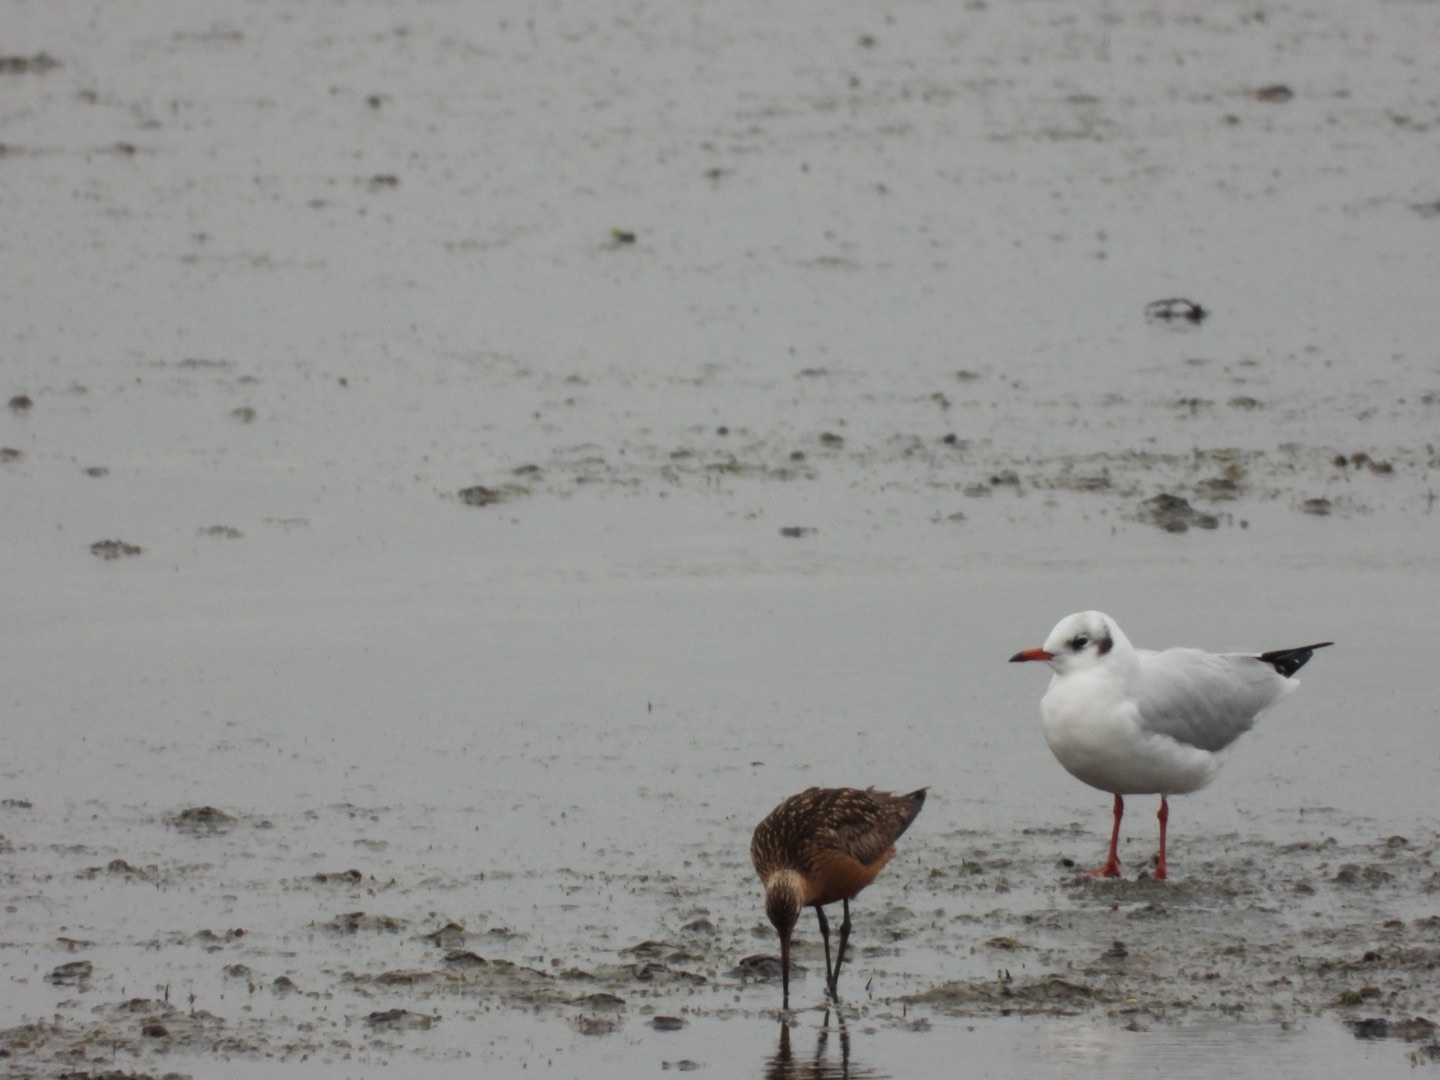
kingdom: Animalia
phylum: Chordata
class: Aves
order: Charadriiformes
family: Scolopacidae
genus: Limosa
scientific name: Limosa lapponica
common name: Lille kobbersneppe
